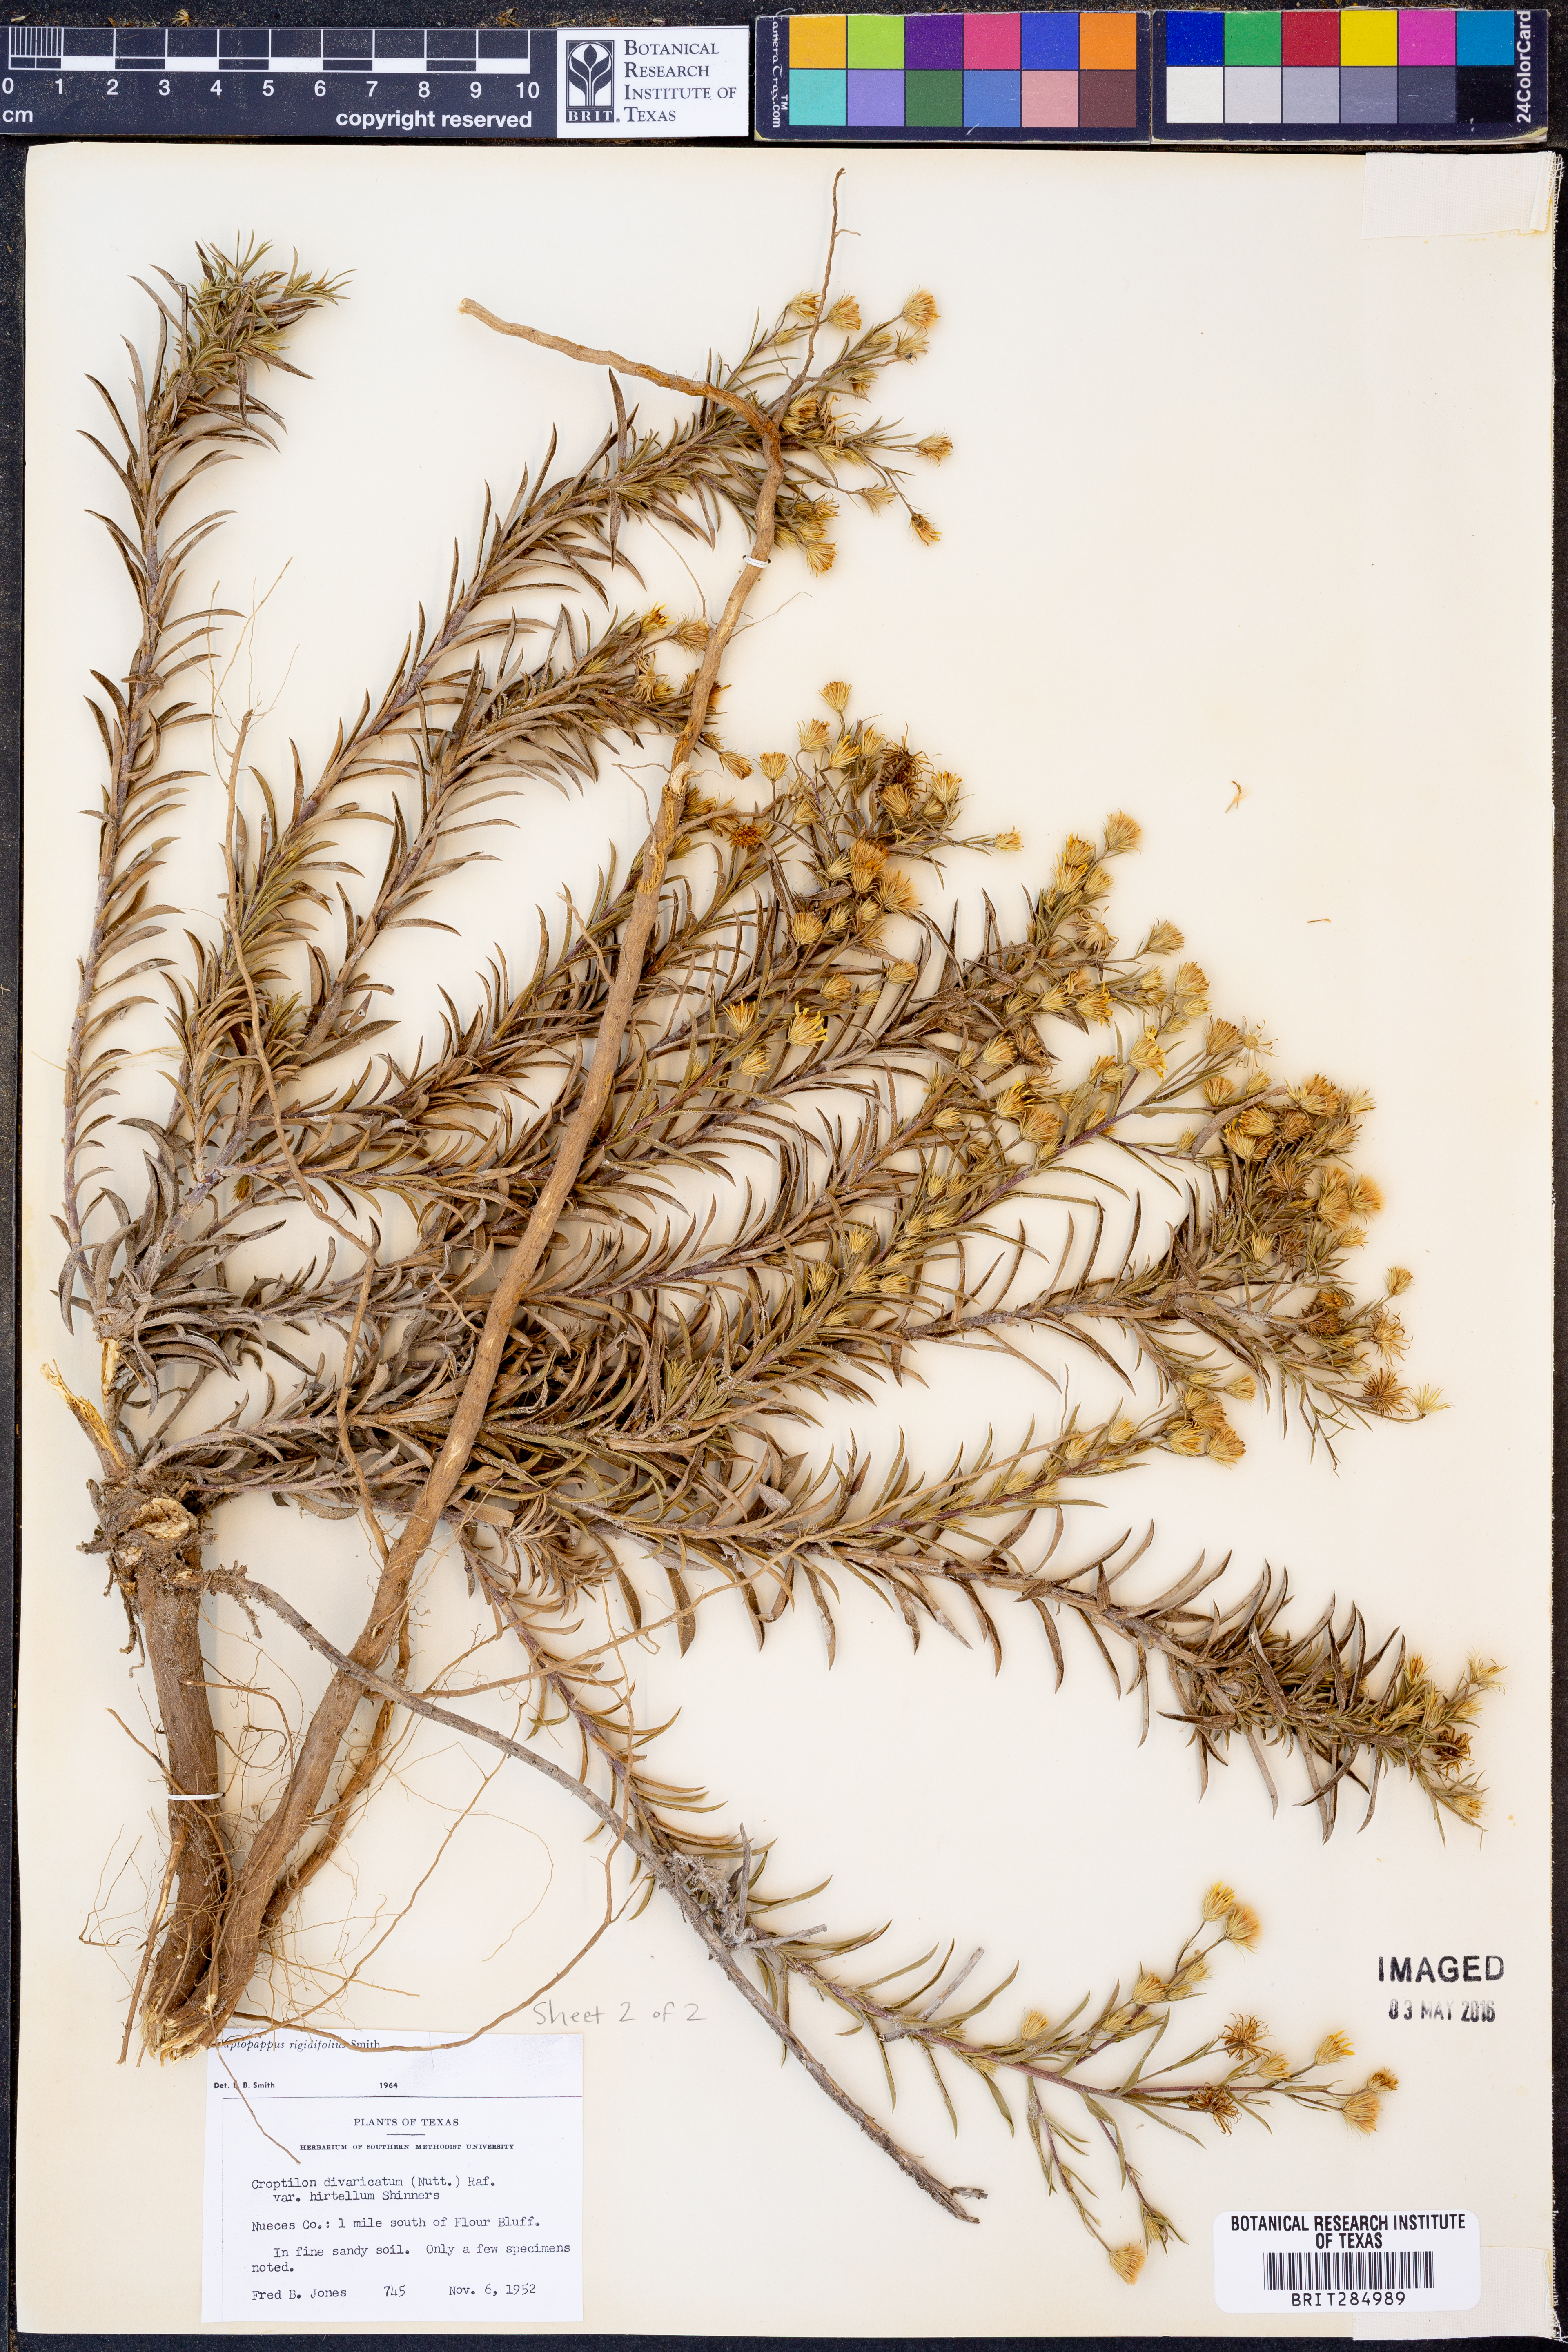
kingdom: Plantae
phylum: Tracheophyta
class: Magnoliopsida
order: Asterales
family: Asteraceae
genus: Croptilon
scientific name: Croptilon rigidifolium
